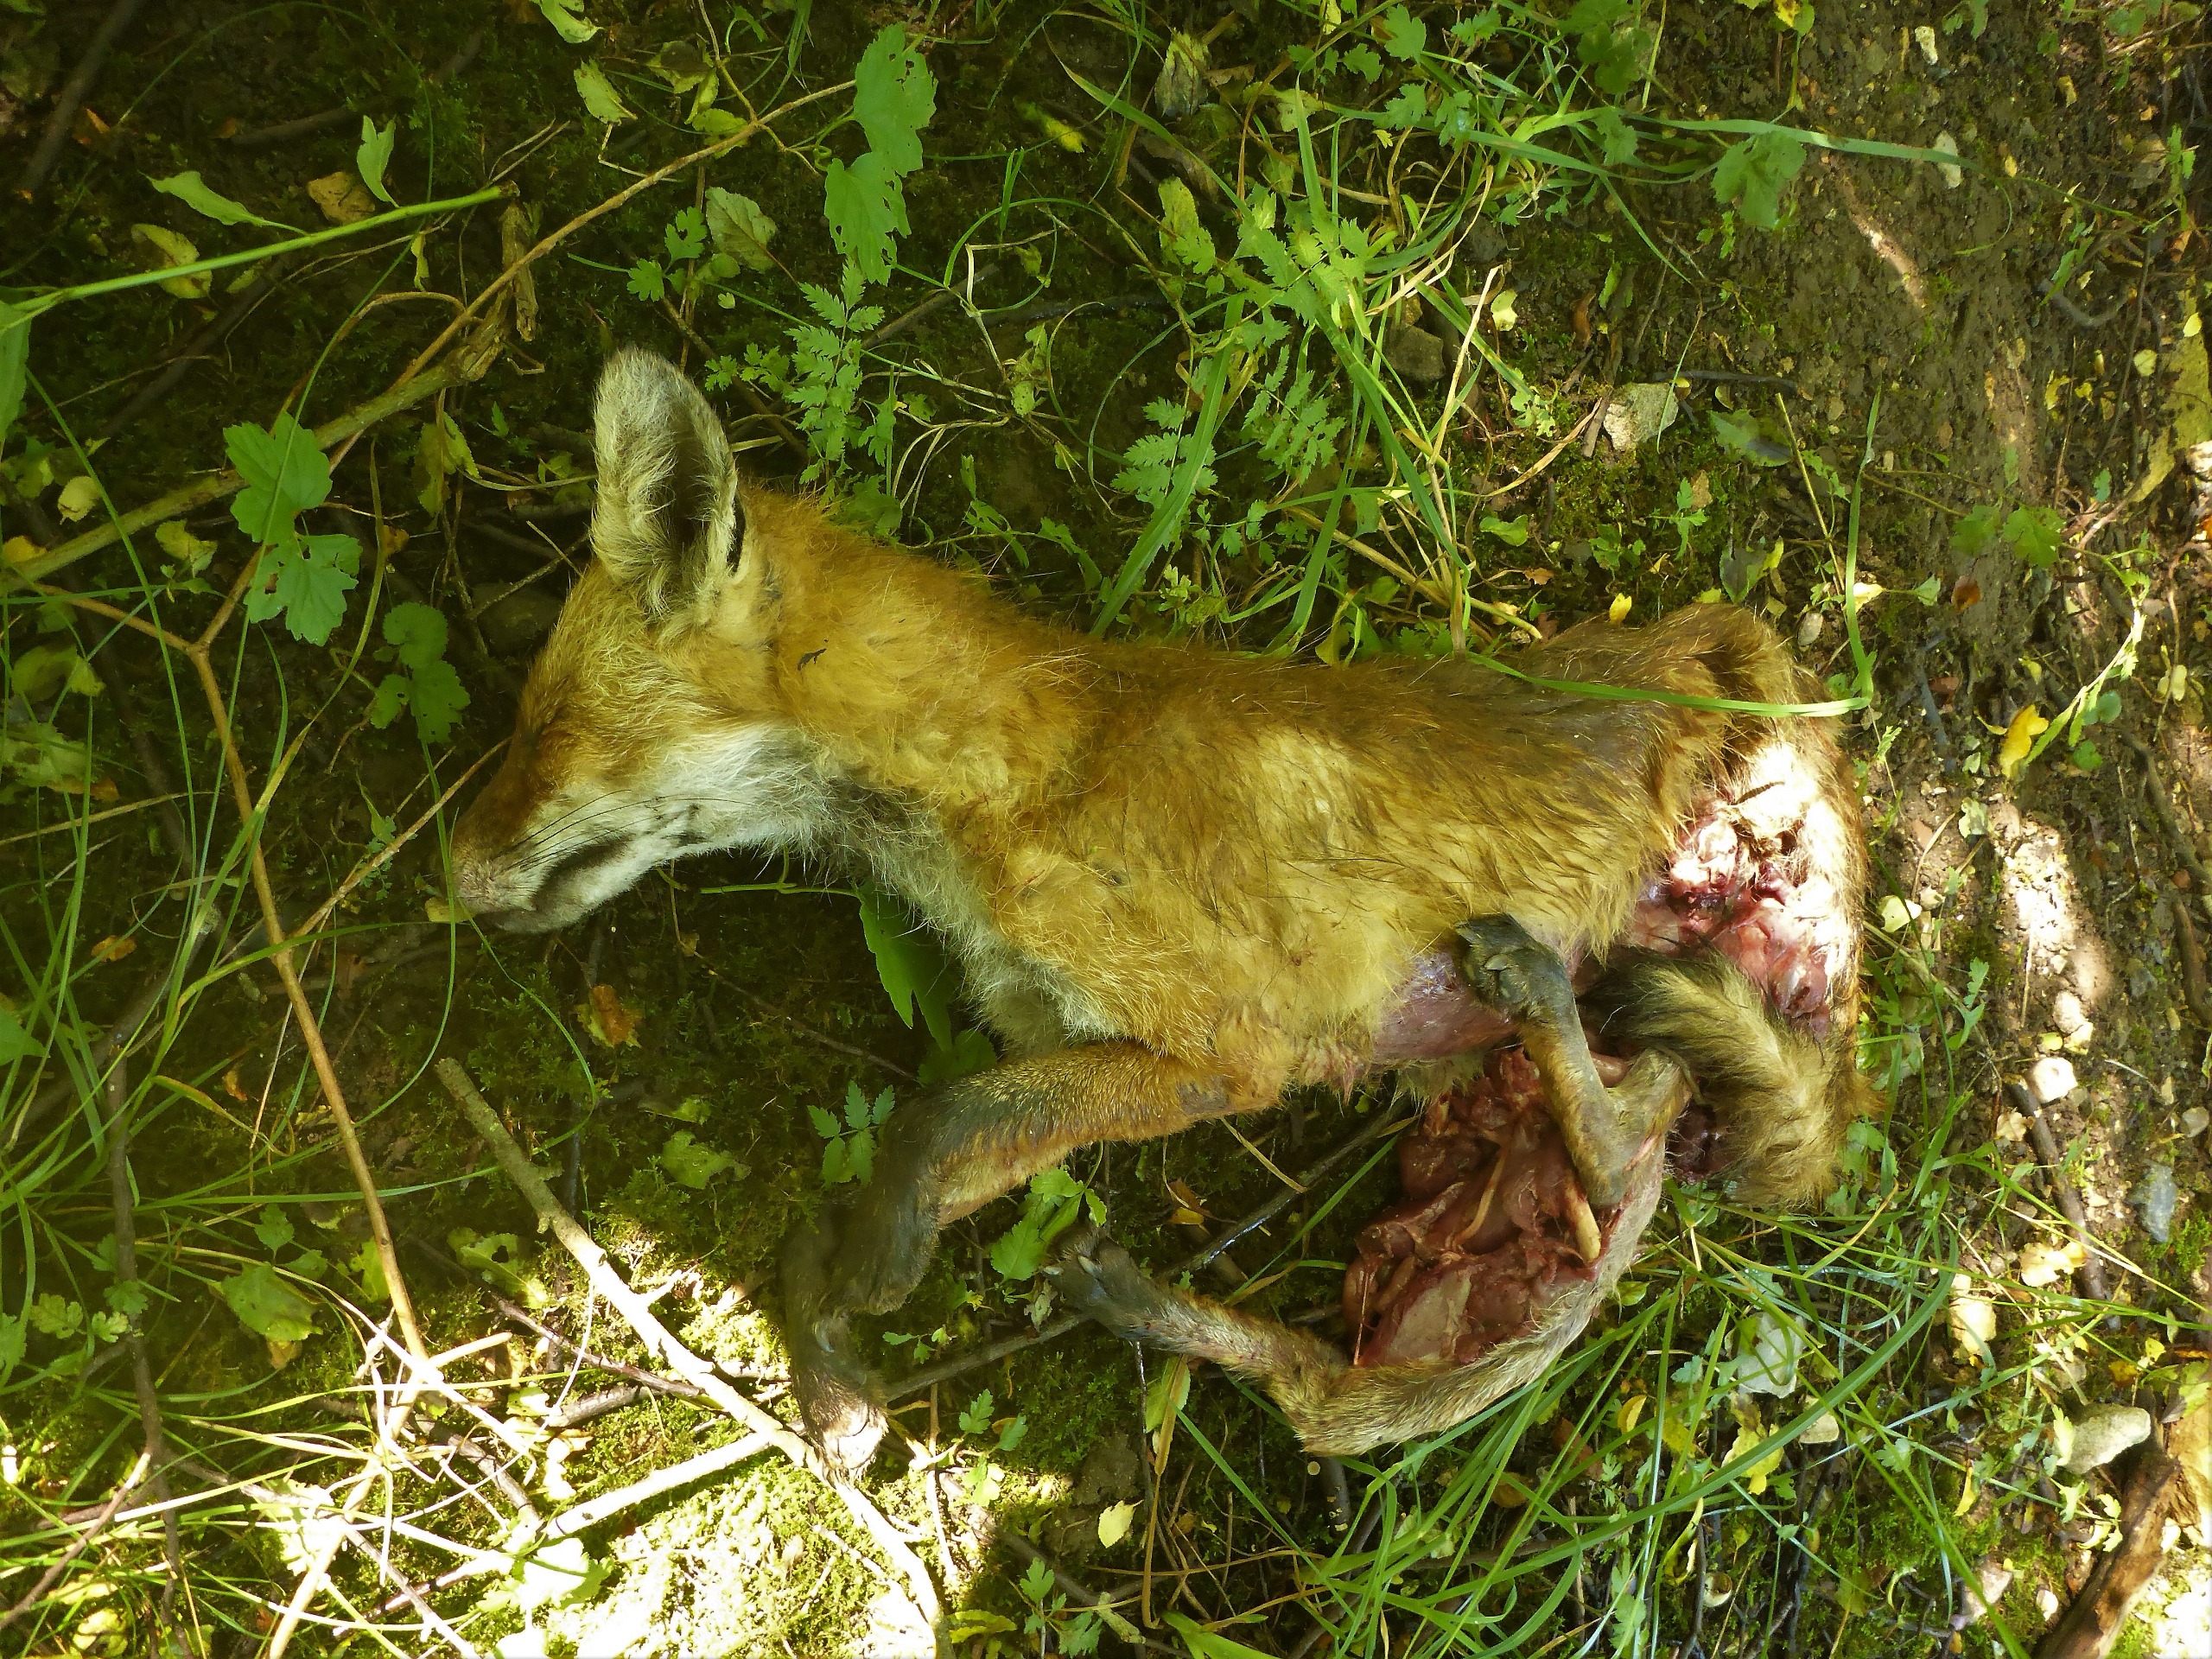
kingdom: Animalia
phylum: Chordata
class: Mammalia
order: Carnivora
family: Canidae
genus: Vulpes
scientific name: Vulpes vulpes
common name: Ræv
